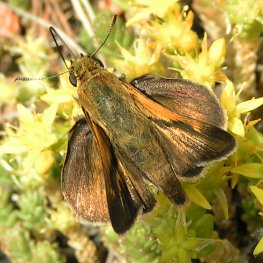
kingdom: Animalia
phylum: Arthropoda
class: Insecta
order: Lepidoptera
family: Hesperiidae
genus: Polites
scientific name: Polites
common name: Crossline Skipper
